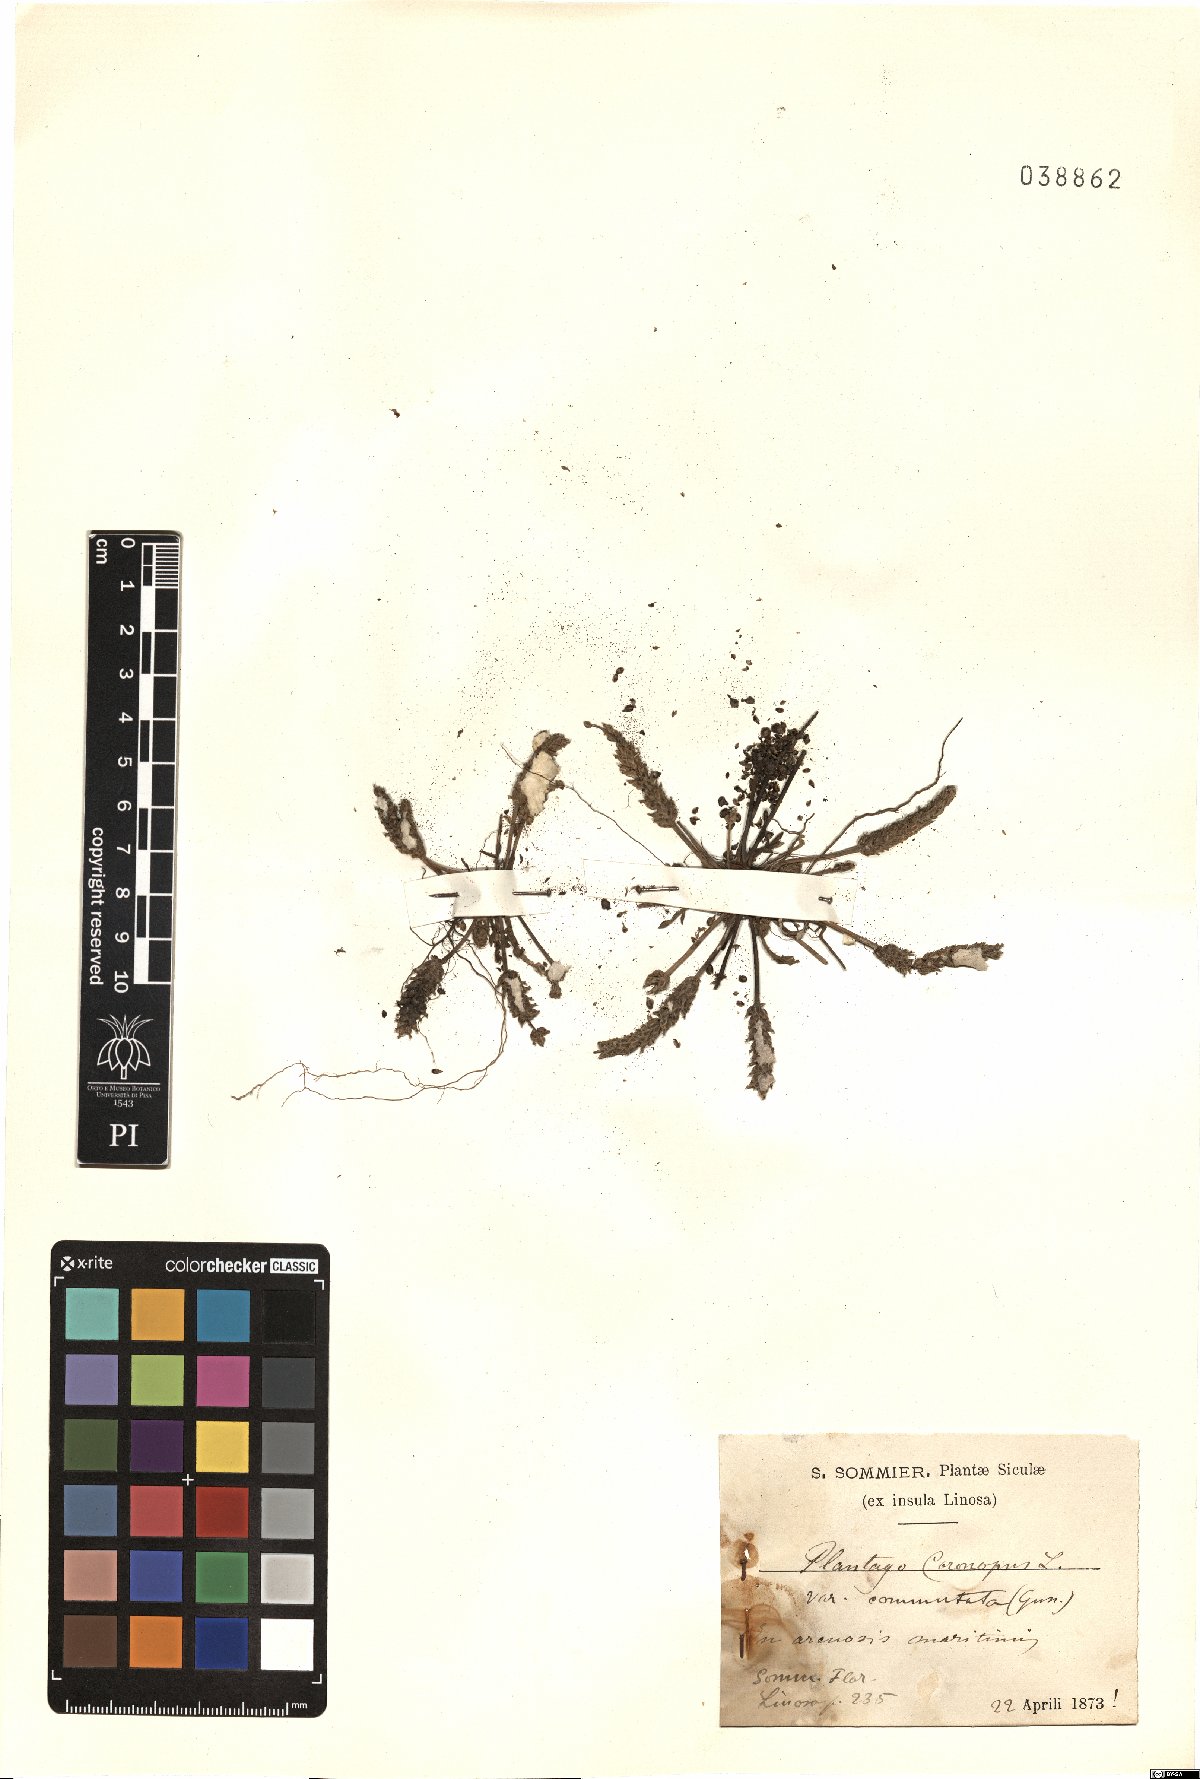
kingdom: Plantae
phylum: Tracheophyta
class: Magnoliopsida
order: Lamiales
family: Plantaginaceae
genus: Plantago
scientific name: Plantago weldenii
